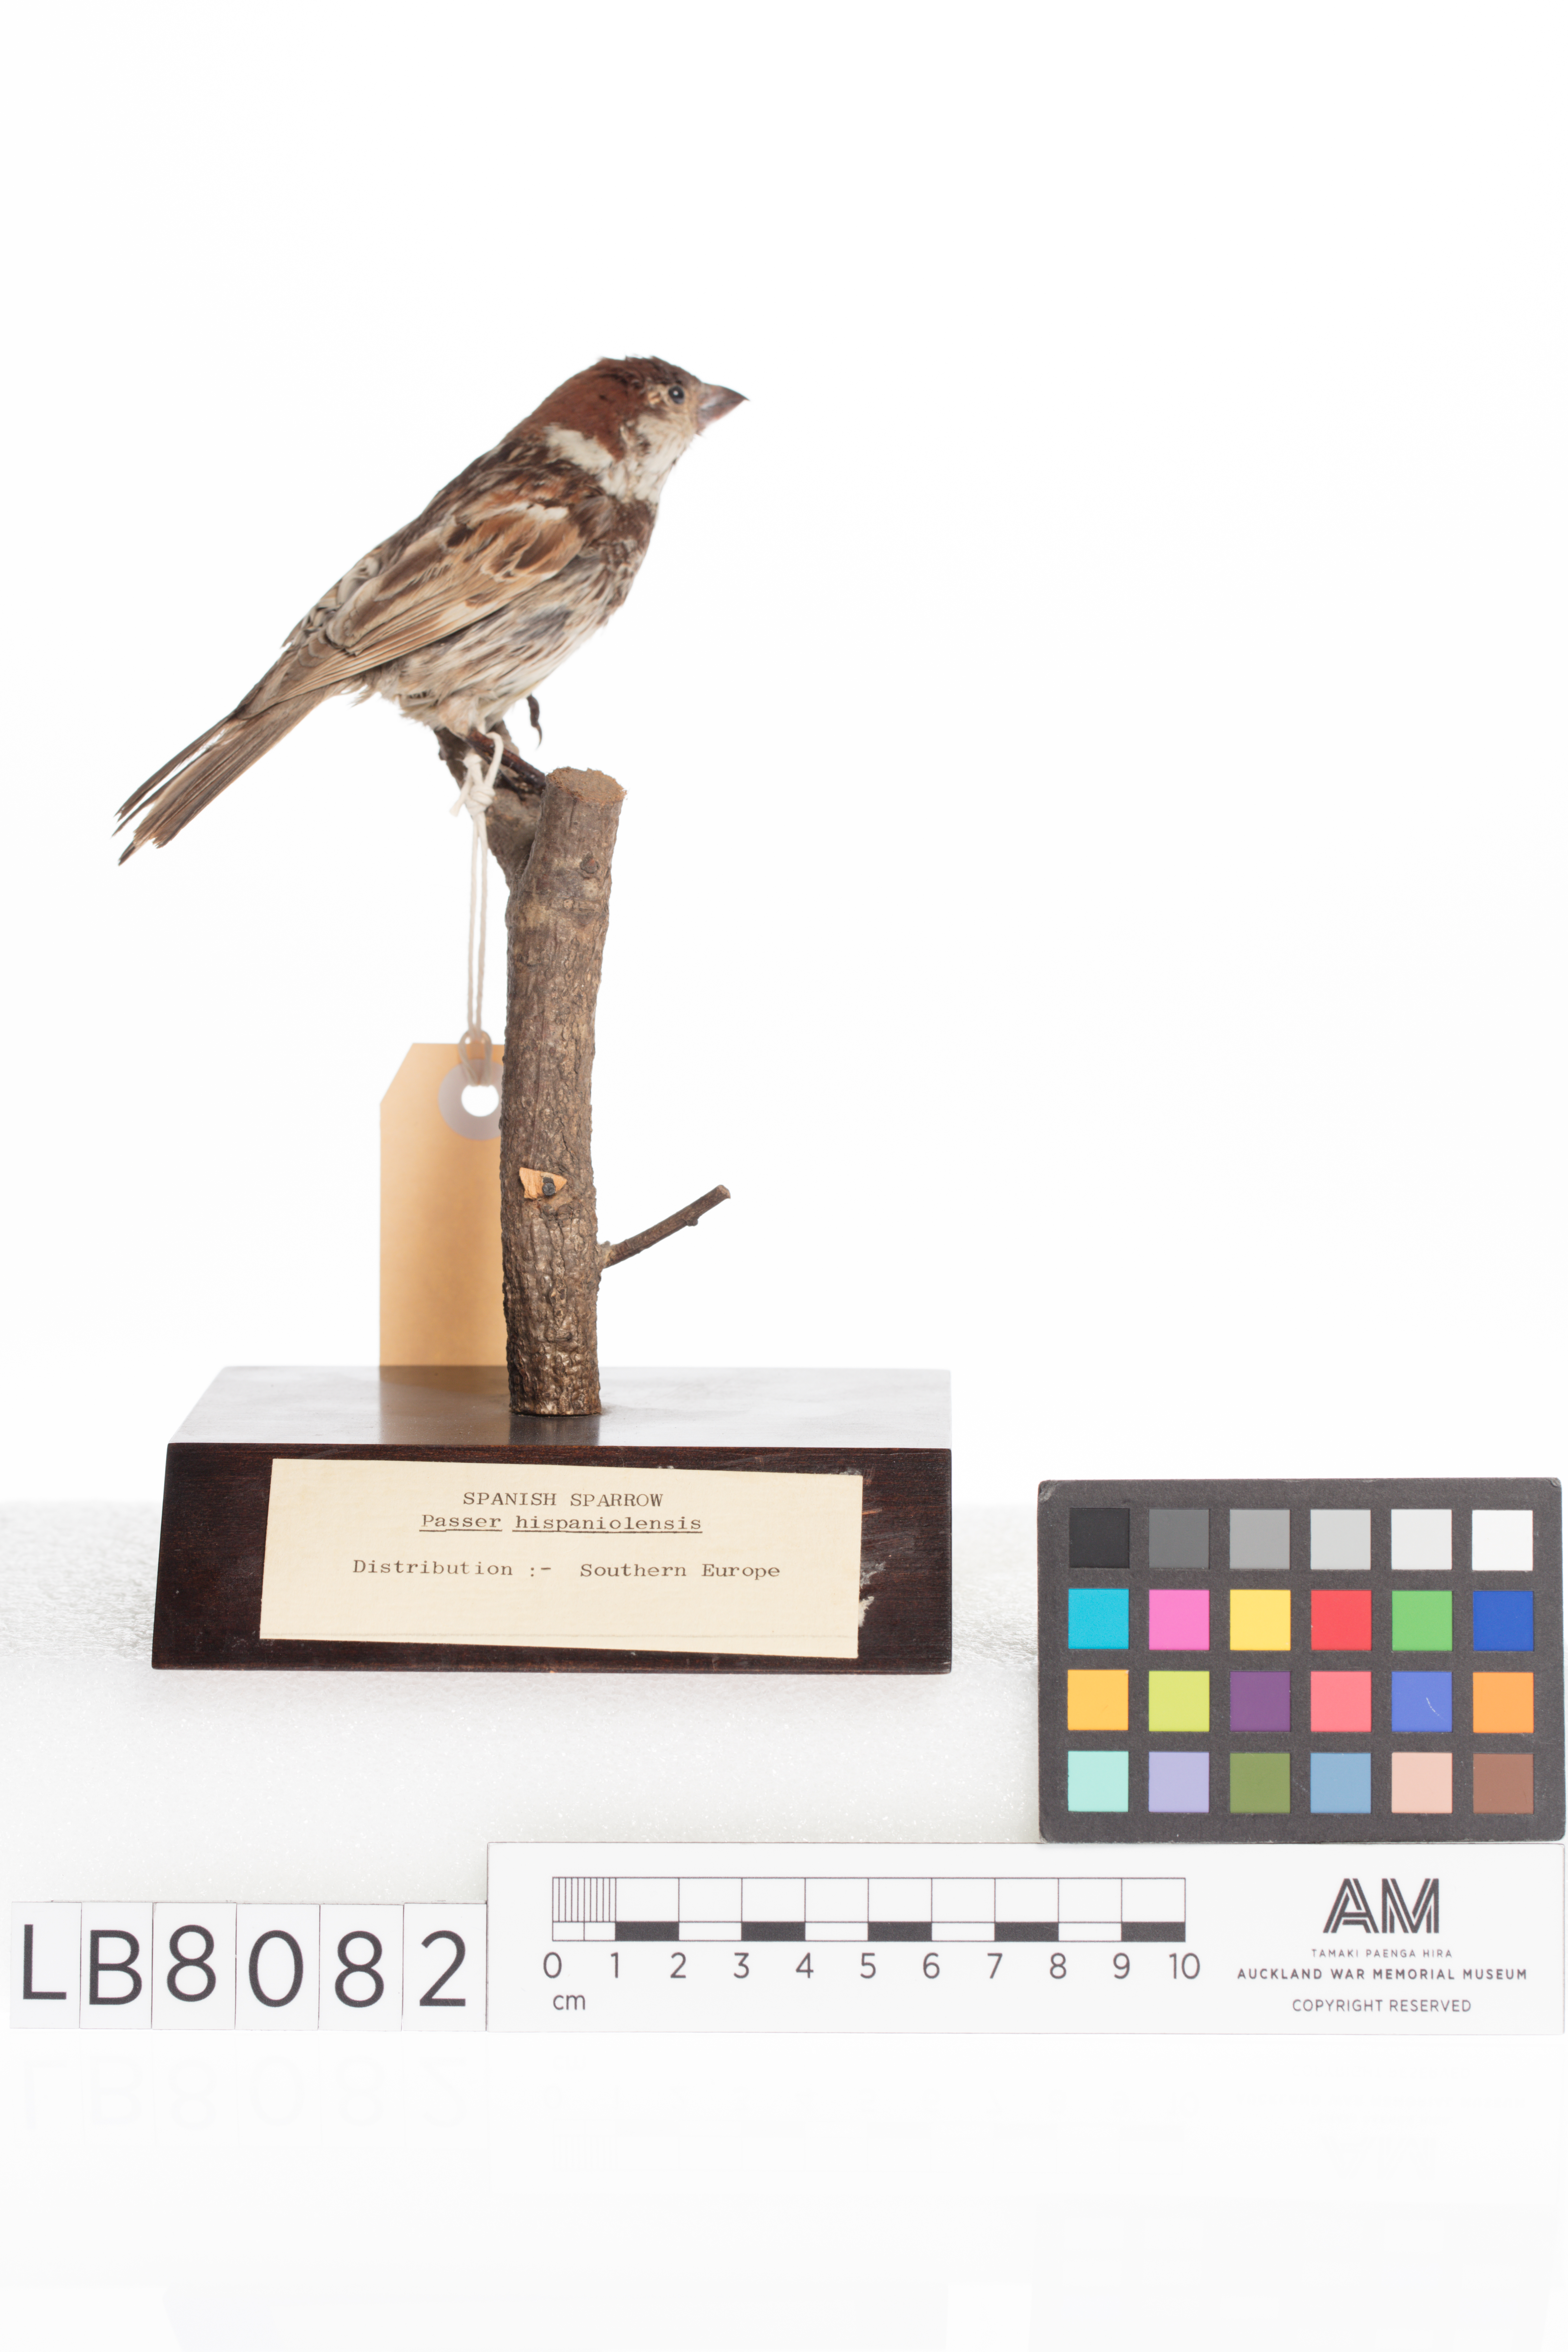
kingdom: Animalia
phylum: Chordata
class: Aves
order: Passeriformes
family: Passeridae
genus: Passer
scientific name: Passer hispaniolensis
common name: Spanish sparrow
